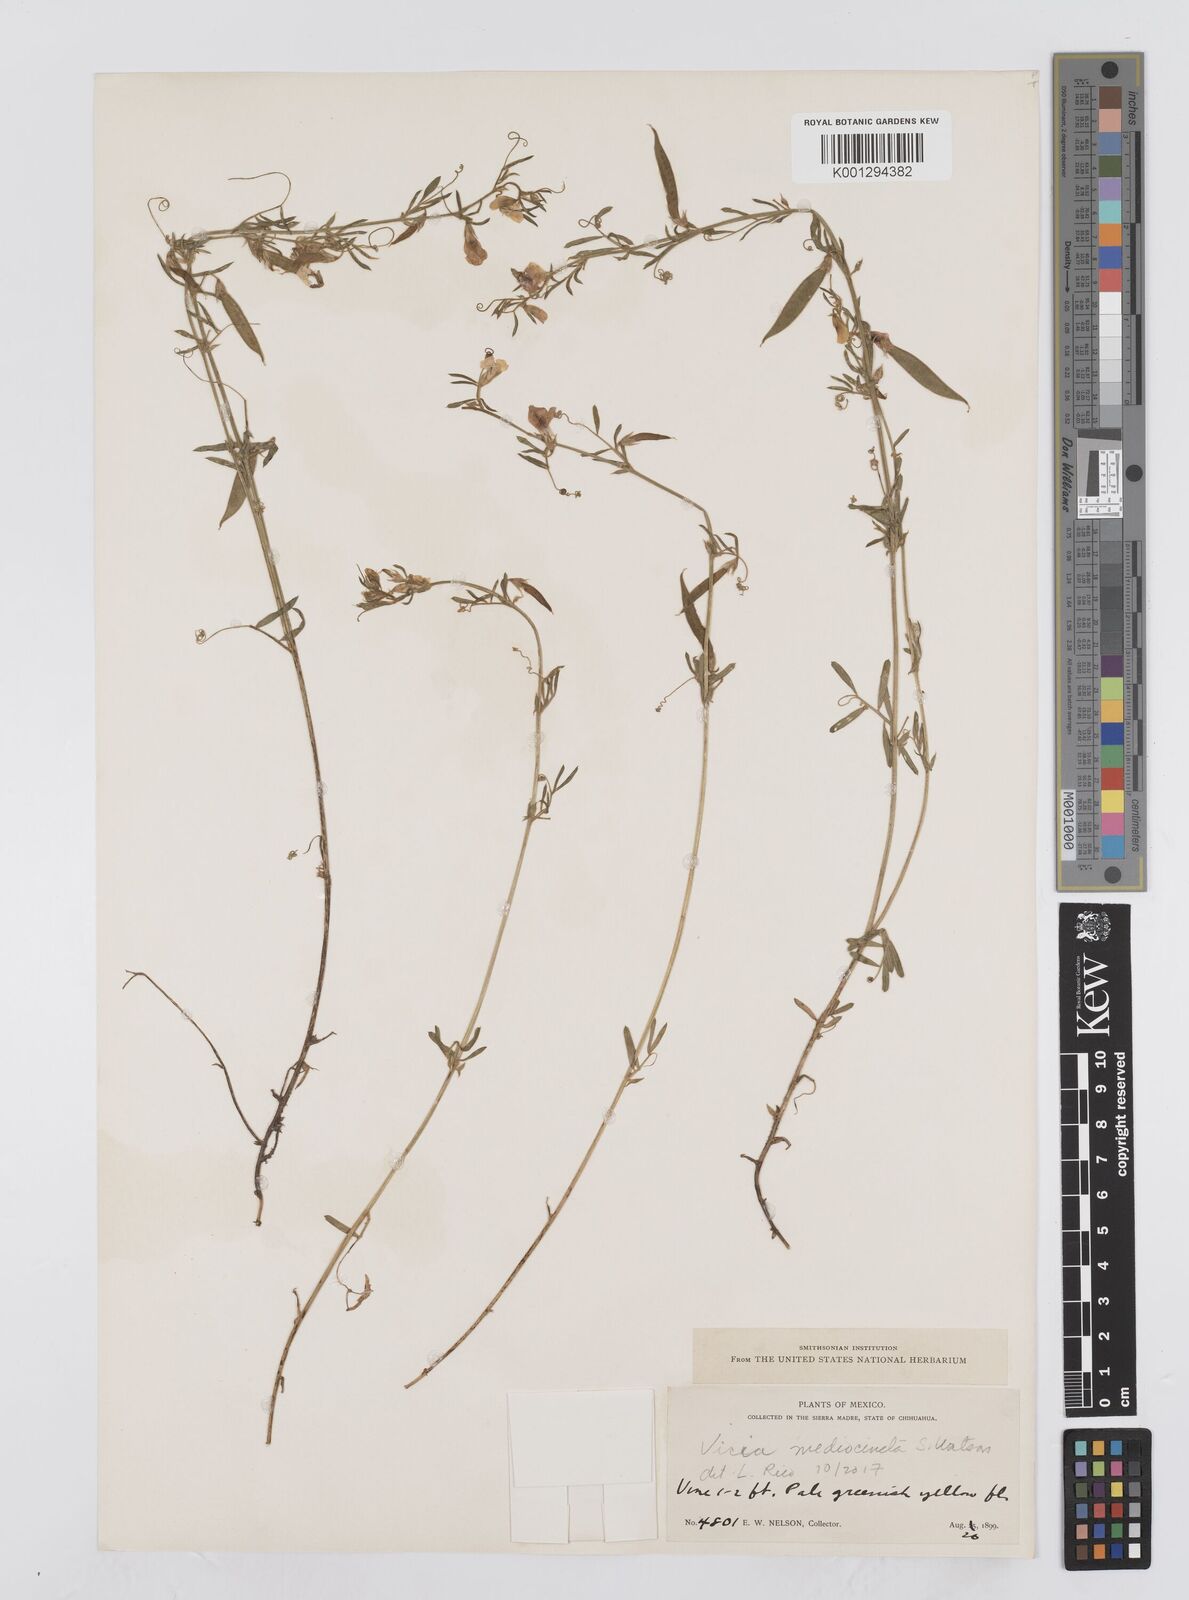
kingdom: Plantae
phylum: Tracheophyta
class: Magnoliopsida
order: Fabales
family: Fabaceae
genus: Vicia
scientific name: Vicia
